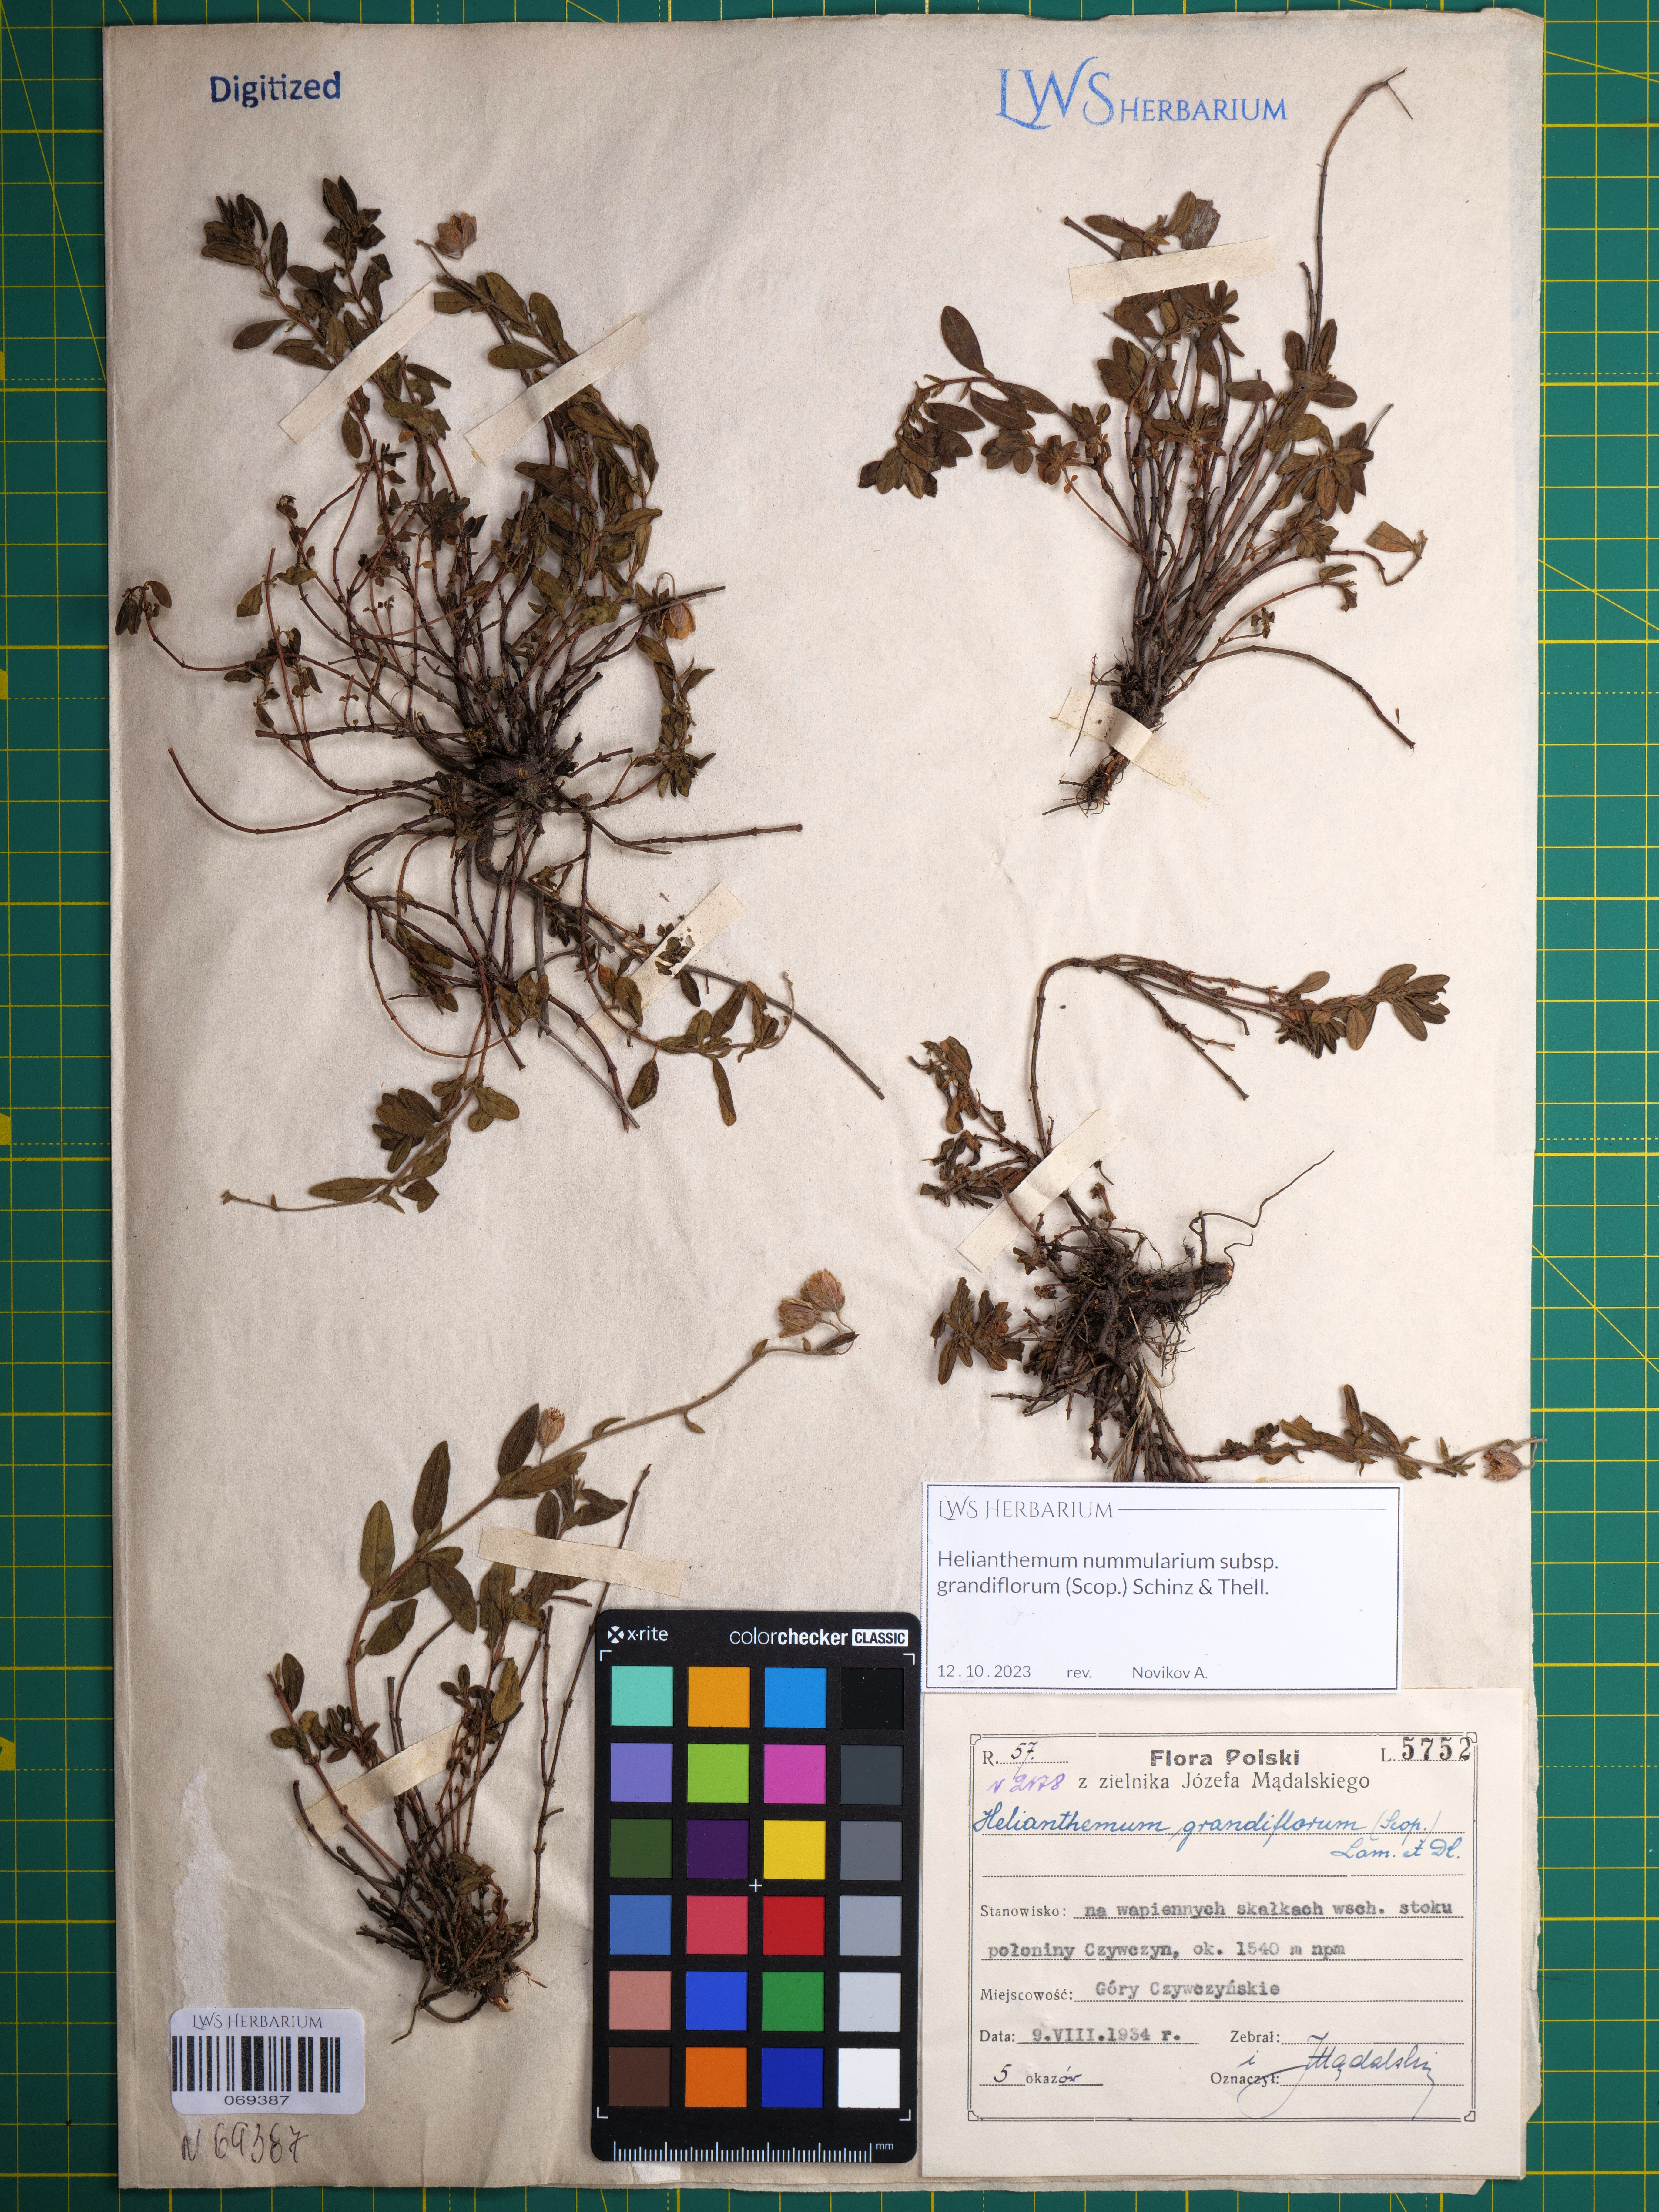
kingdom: Plantae
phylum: Tracheophyta
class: Magnoliopsida
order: Malvales
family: Cistaceae
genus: Helianthemum
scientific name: Helianthemum nummularium
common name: Common rock-rose
